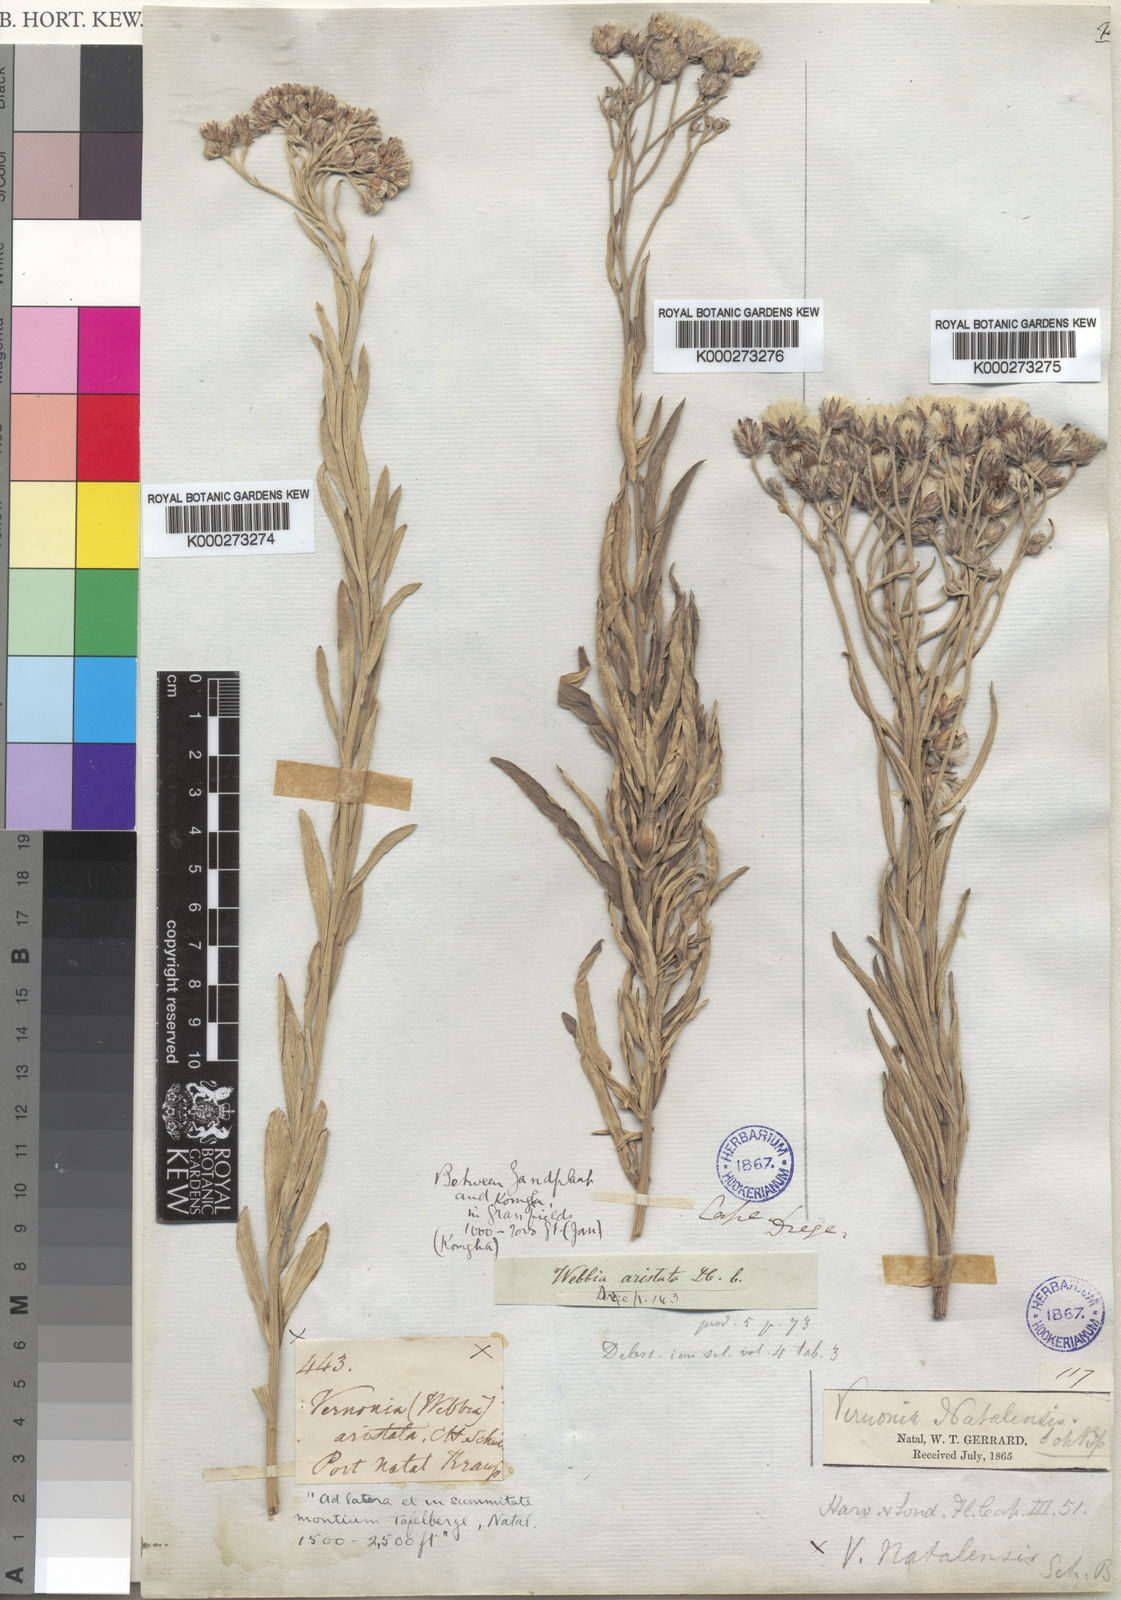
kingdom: Plantae
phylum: Tracheophyta
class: Magnoliopsida
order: Asterales
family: Asteraceae
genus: Hilliardiella
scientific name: Hilliardiella aristata
